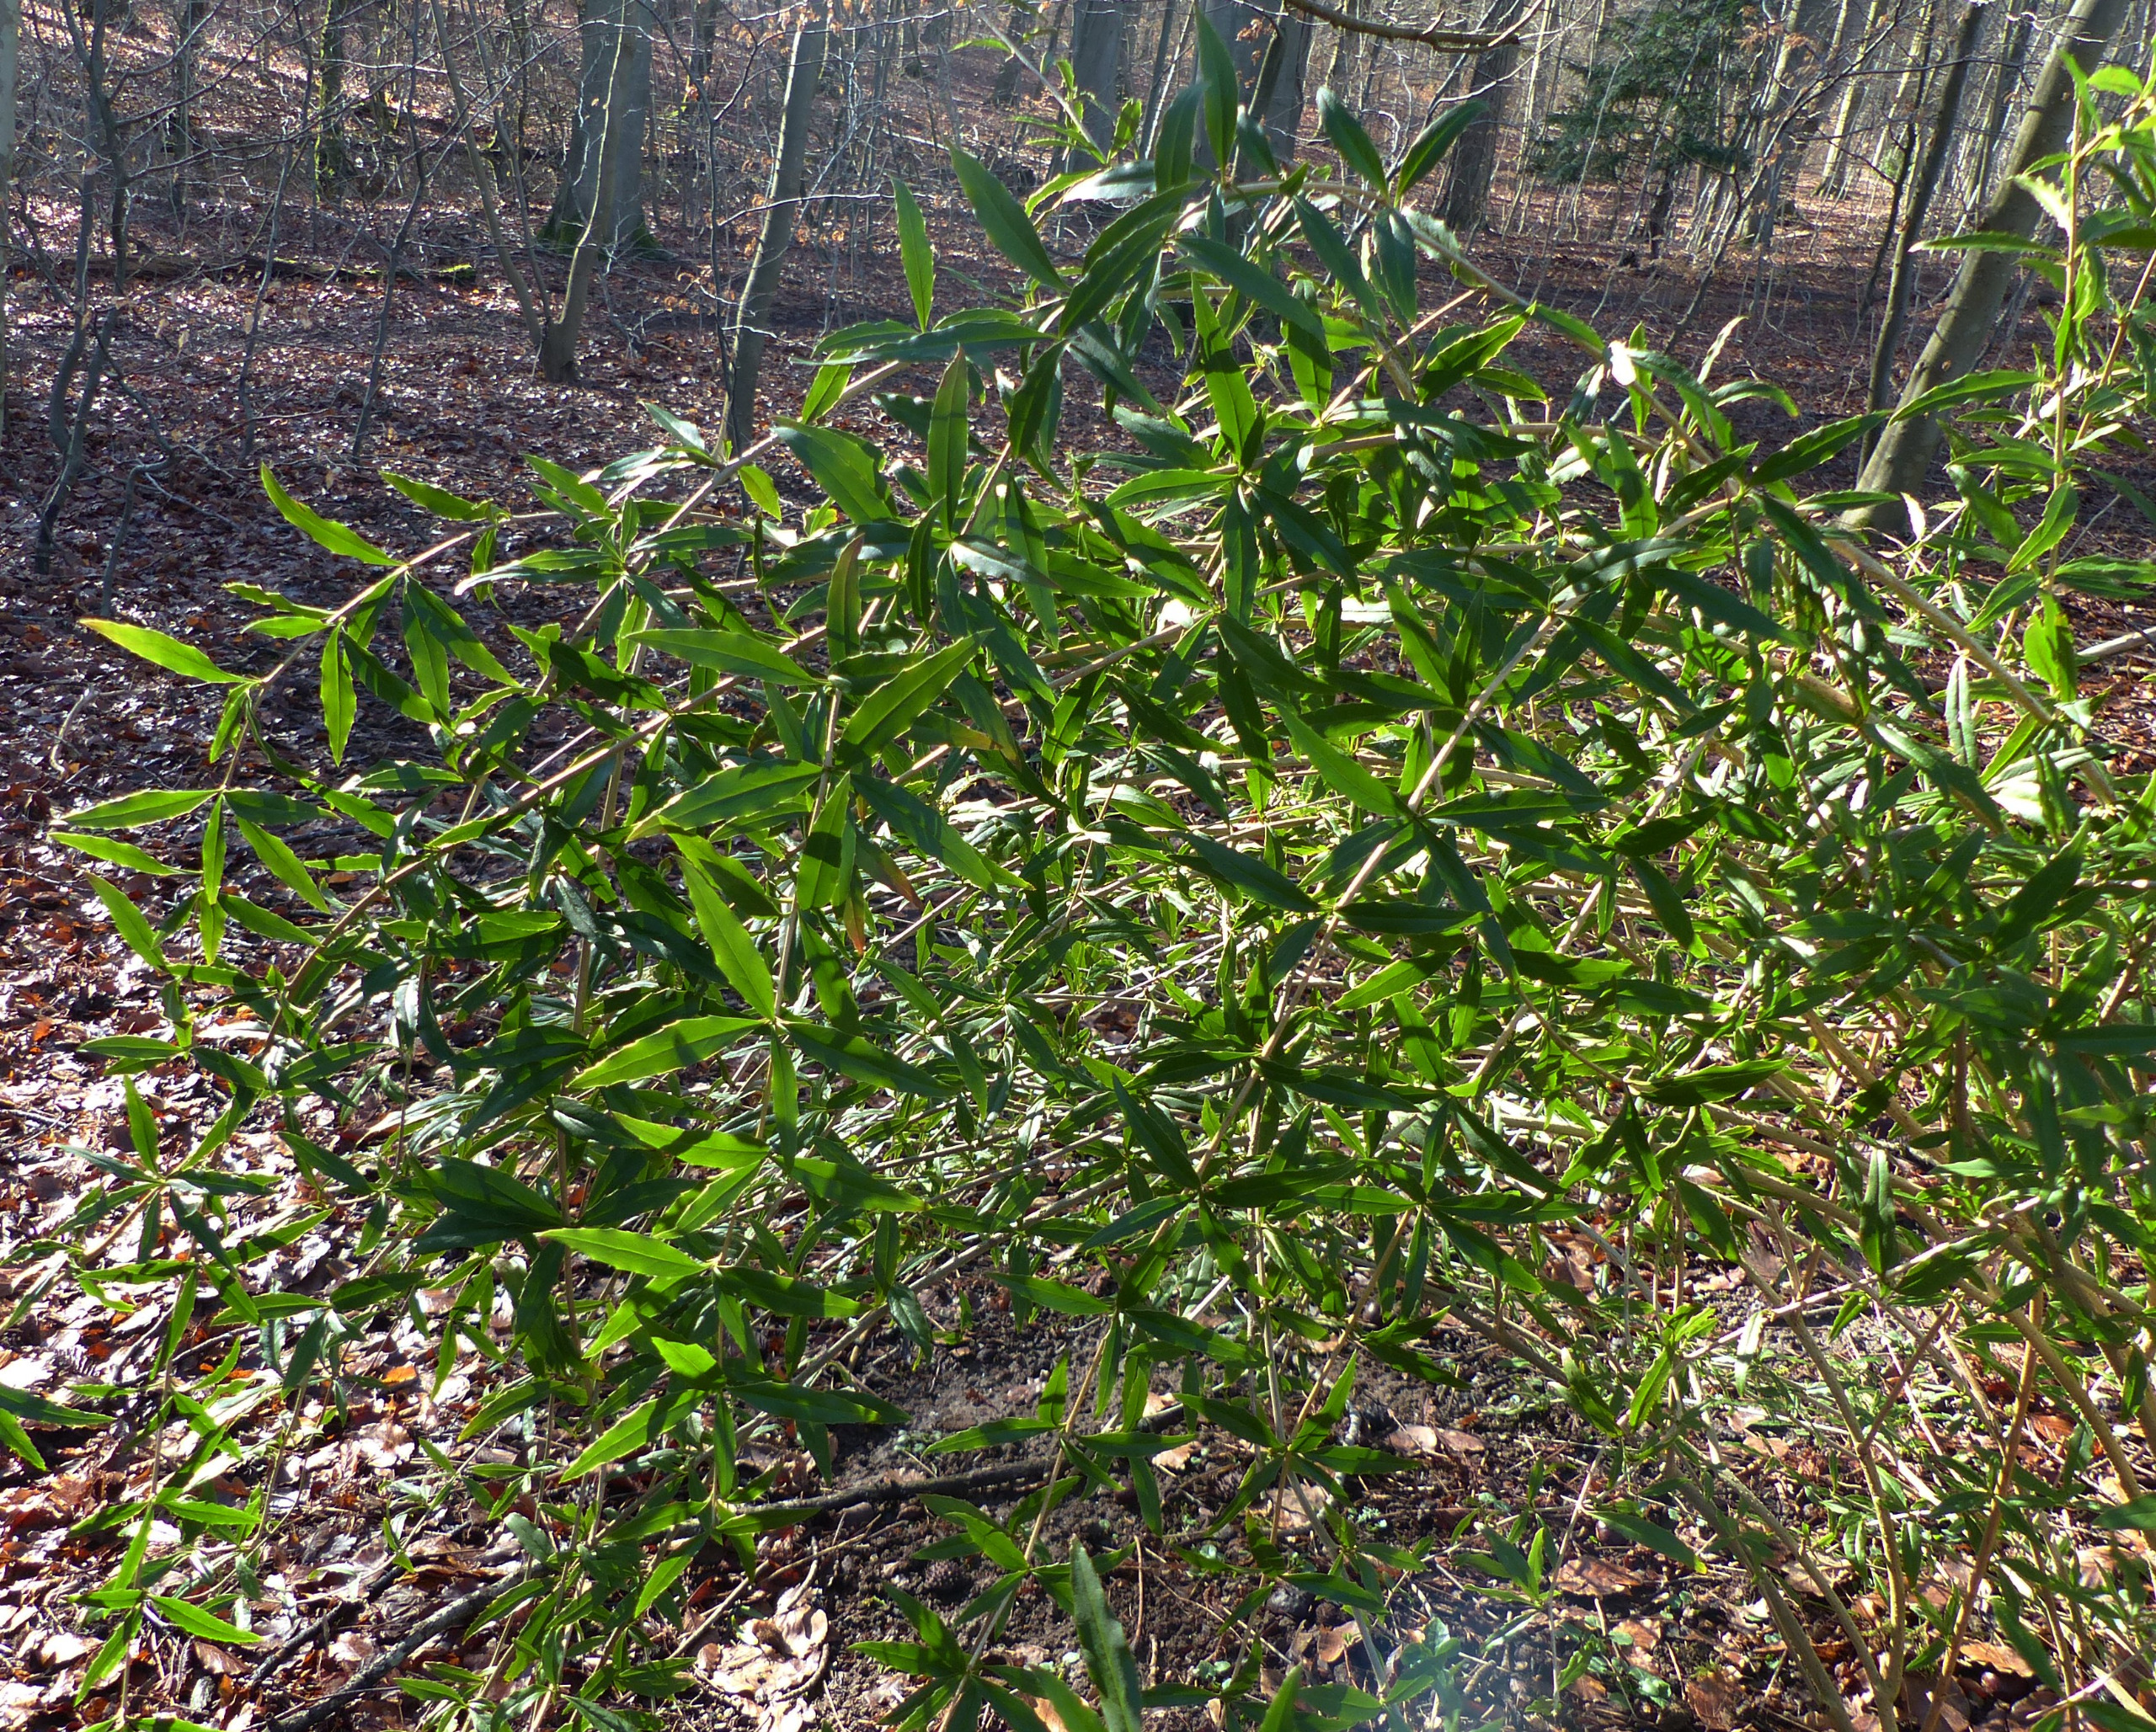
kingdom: Plantae
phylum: Tracheophyta
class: Magnoliopsida
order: Ranunculales
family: Berberidaceae
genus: Berberis
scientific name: Berberis gagnepainii
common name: Smalbladet surtorn
